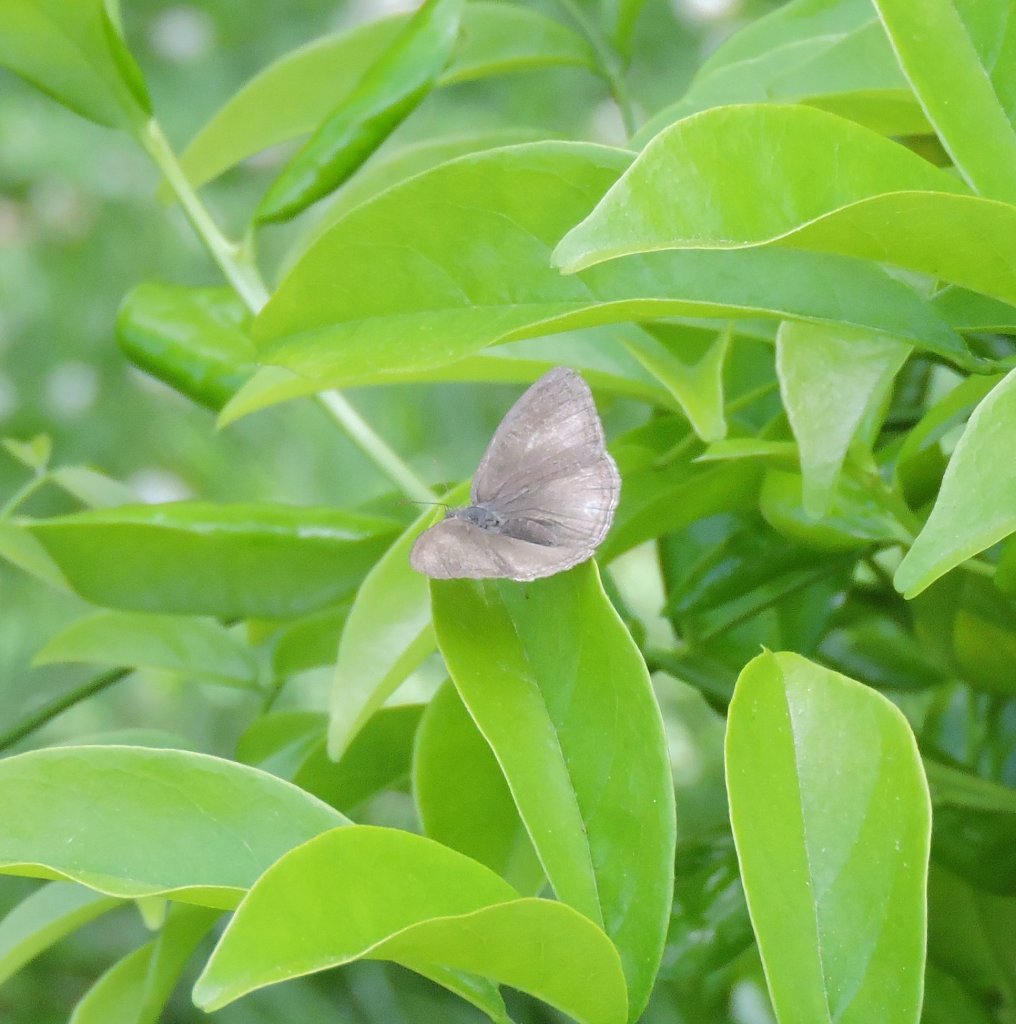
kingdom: Animalia
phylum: Arthropoda
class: Insecta
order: Lepidoptera
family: Nymphalidae
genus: Hermeuptychia
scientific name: Hermeuptychia hermes
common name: Carolina Satyr
